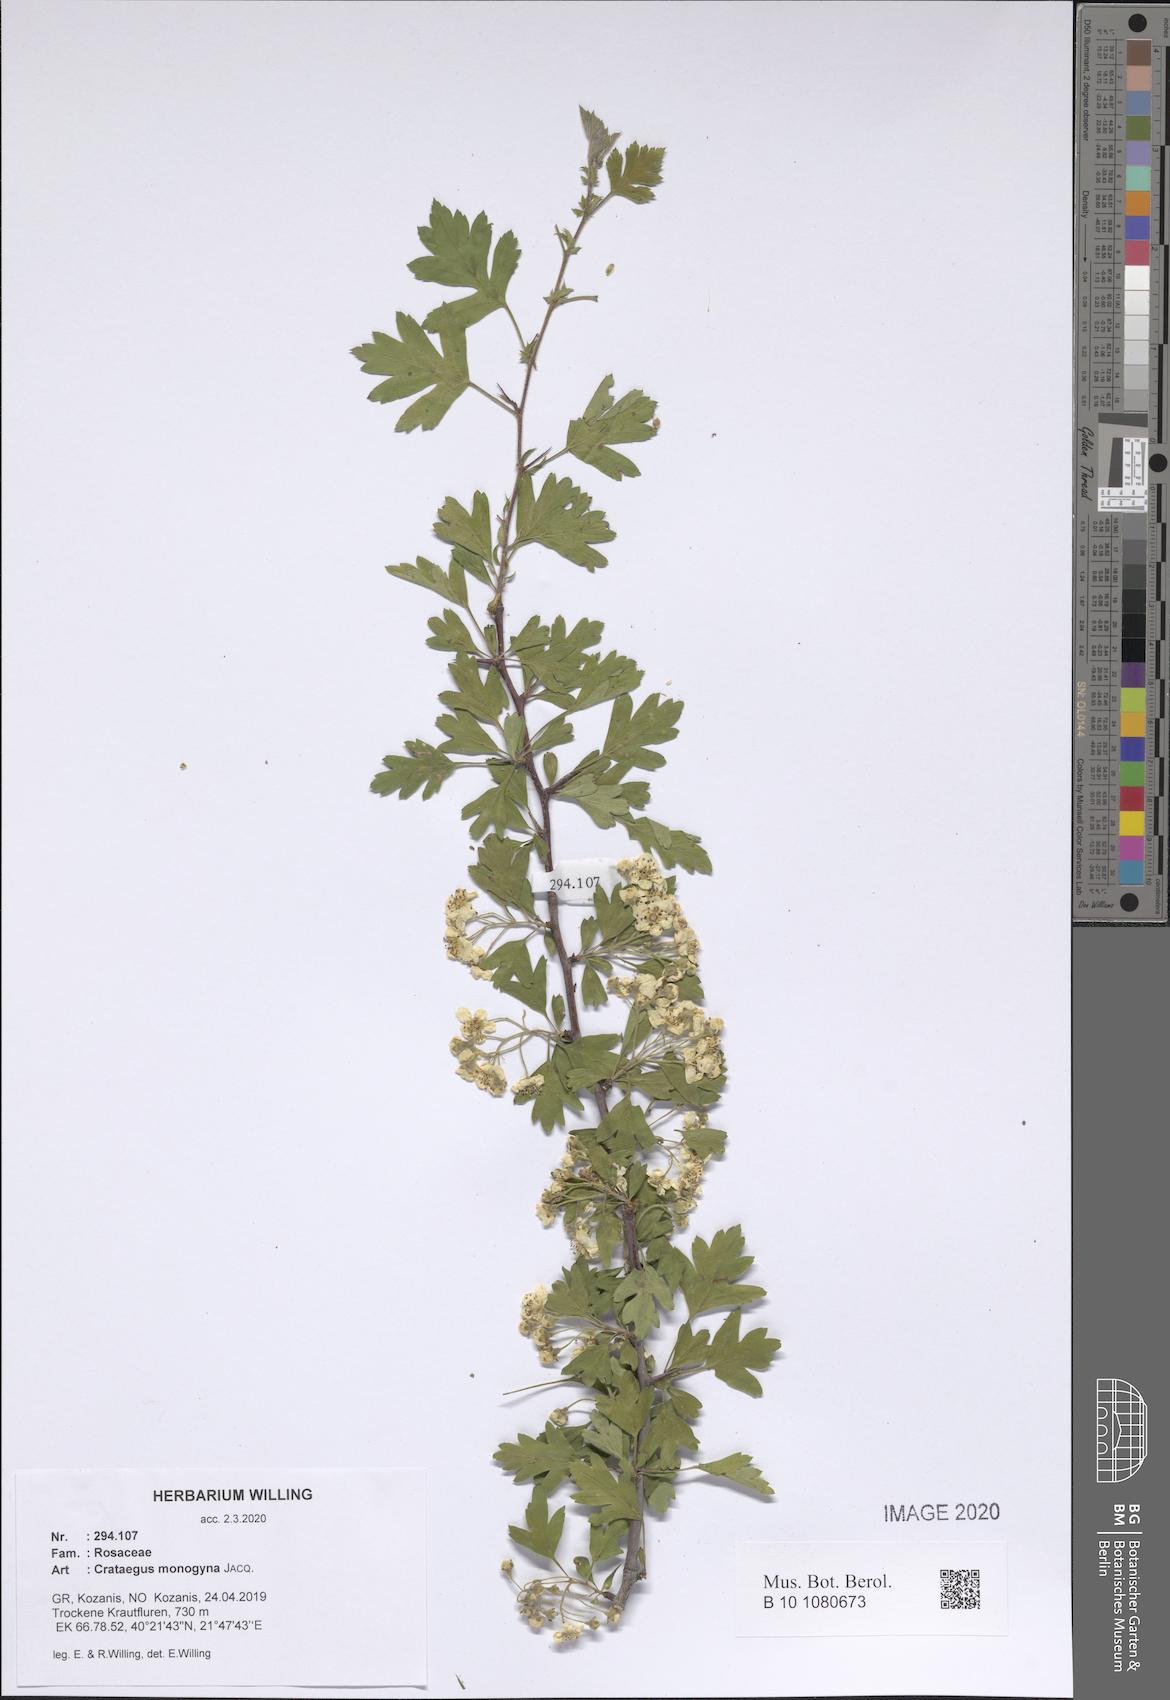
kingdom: Plantae
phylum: Tracheophyta
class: Magnoliopsida
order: Rosales
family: Rosaceae
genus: Crataegus
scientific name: Crataegus monogyna
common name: Hawthorn
